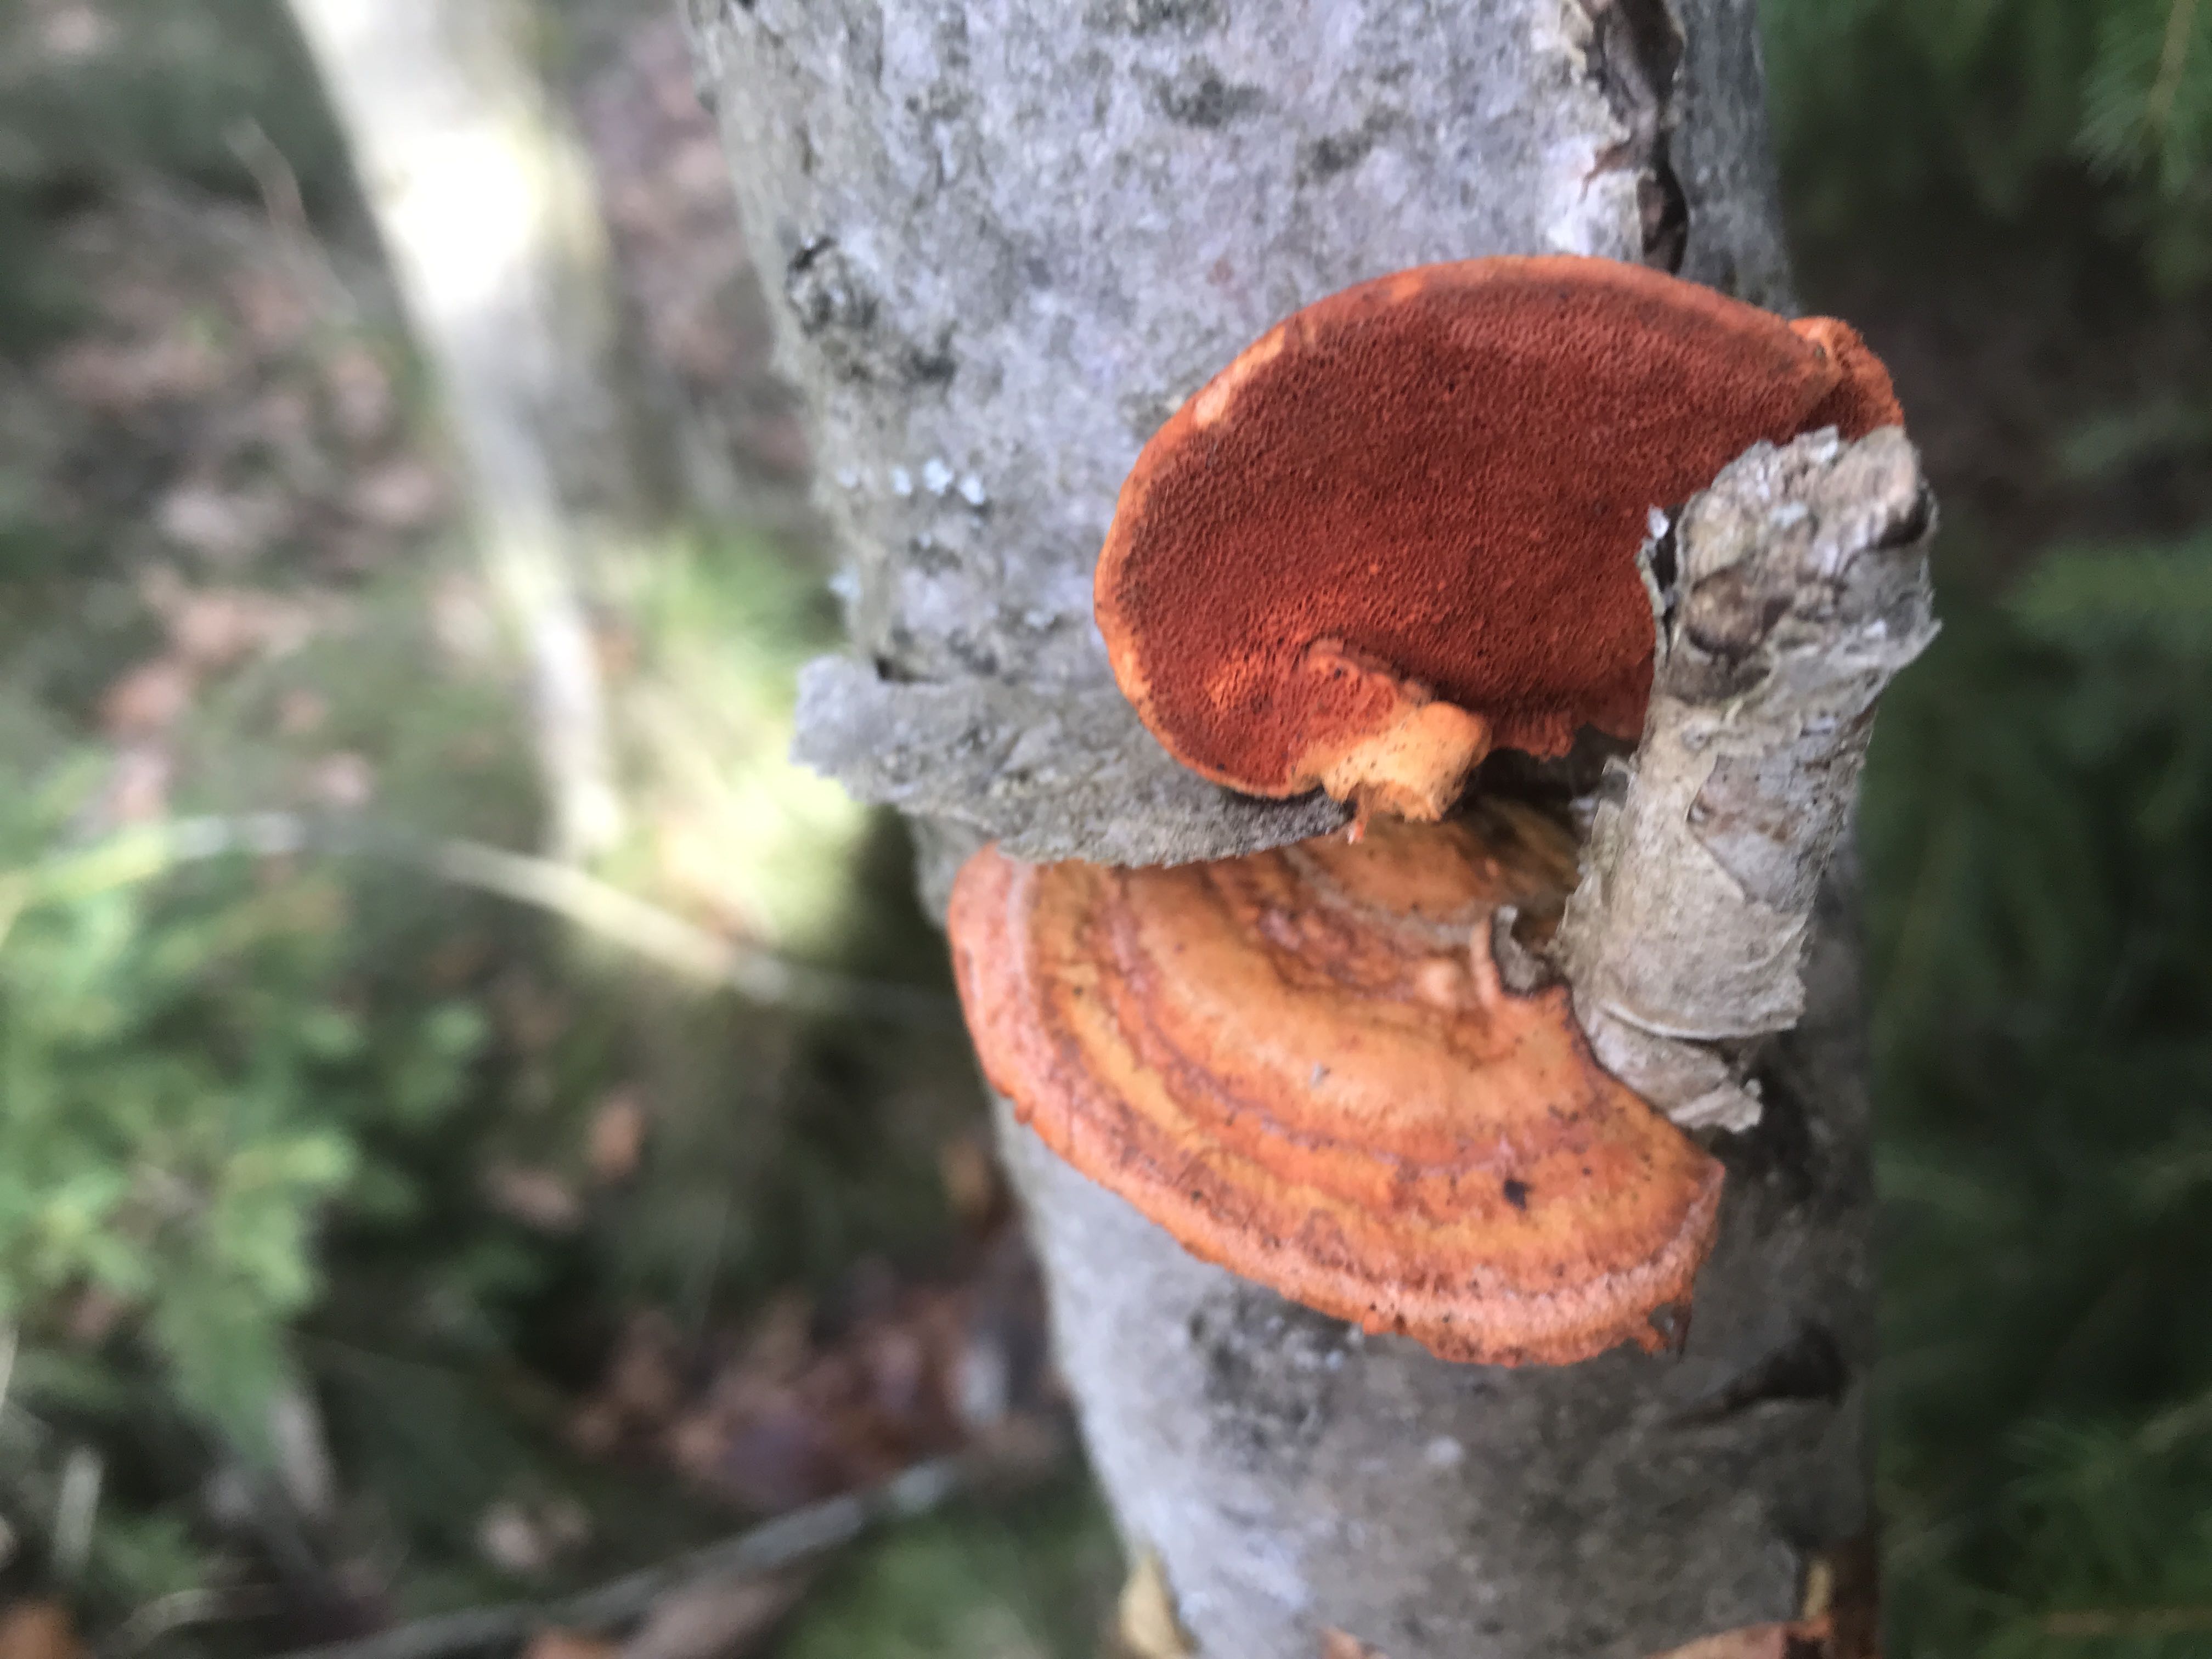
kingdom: Fungi
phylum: Basidiomycota
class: Agaricomycetes
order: Polyporales
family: Polyporaceae
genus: Trametes
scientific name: Trametes cinnabarina
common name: cinnoberporesvamp
